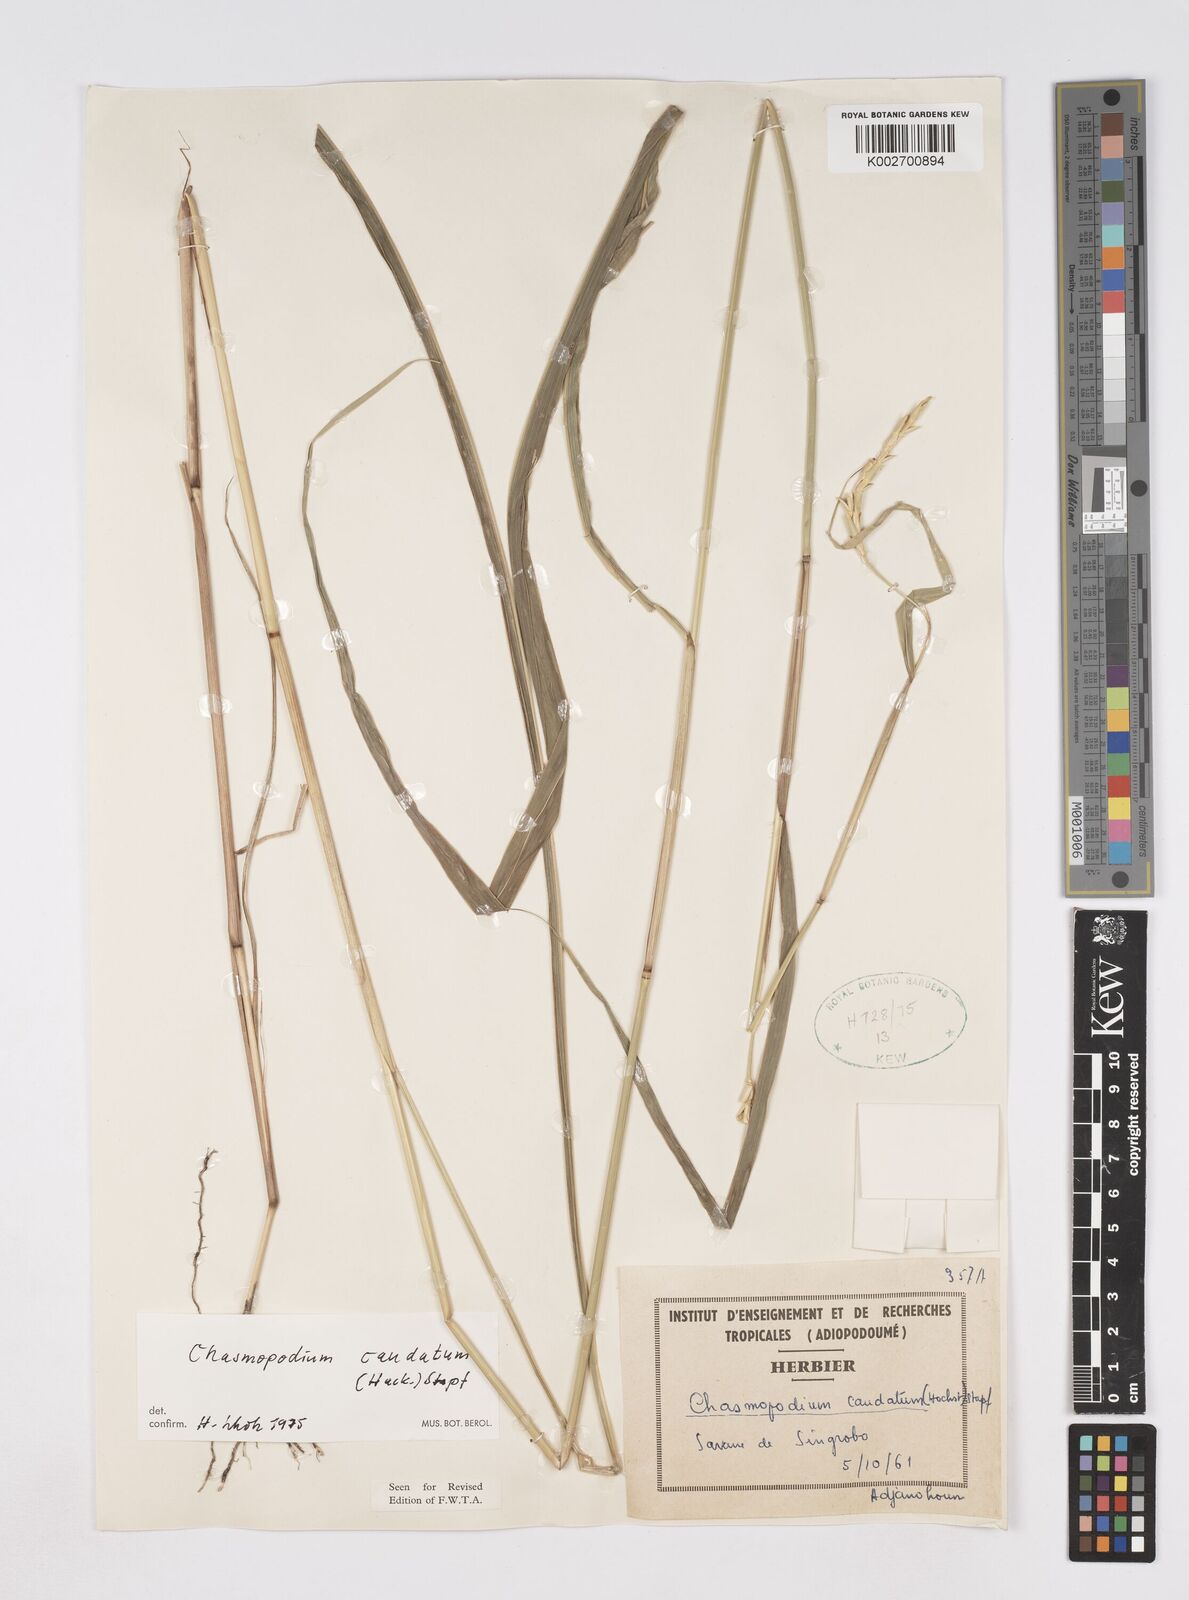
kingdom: Plantae
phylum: Tracheophyta
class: Liliopsida
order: Poales
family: Poaceae
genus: Chasmopodium
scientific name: Chasmopodium caudatum
